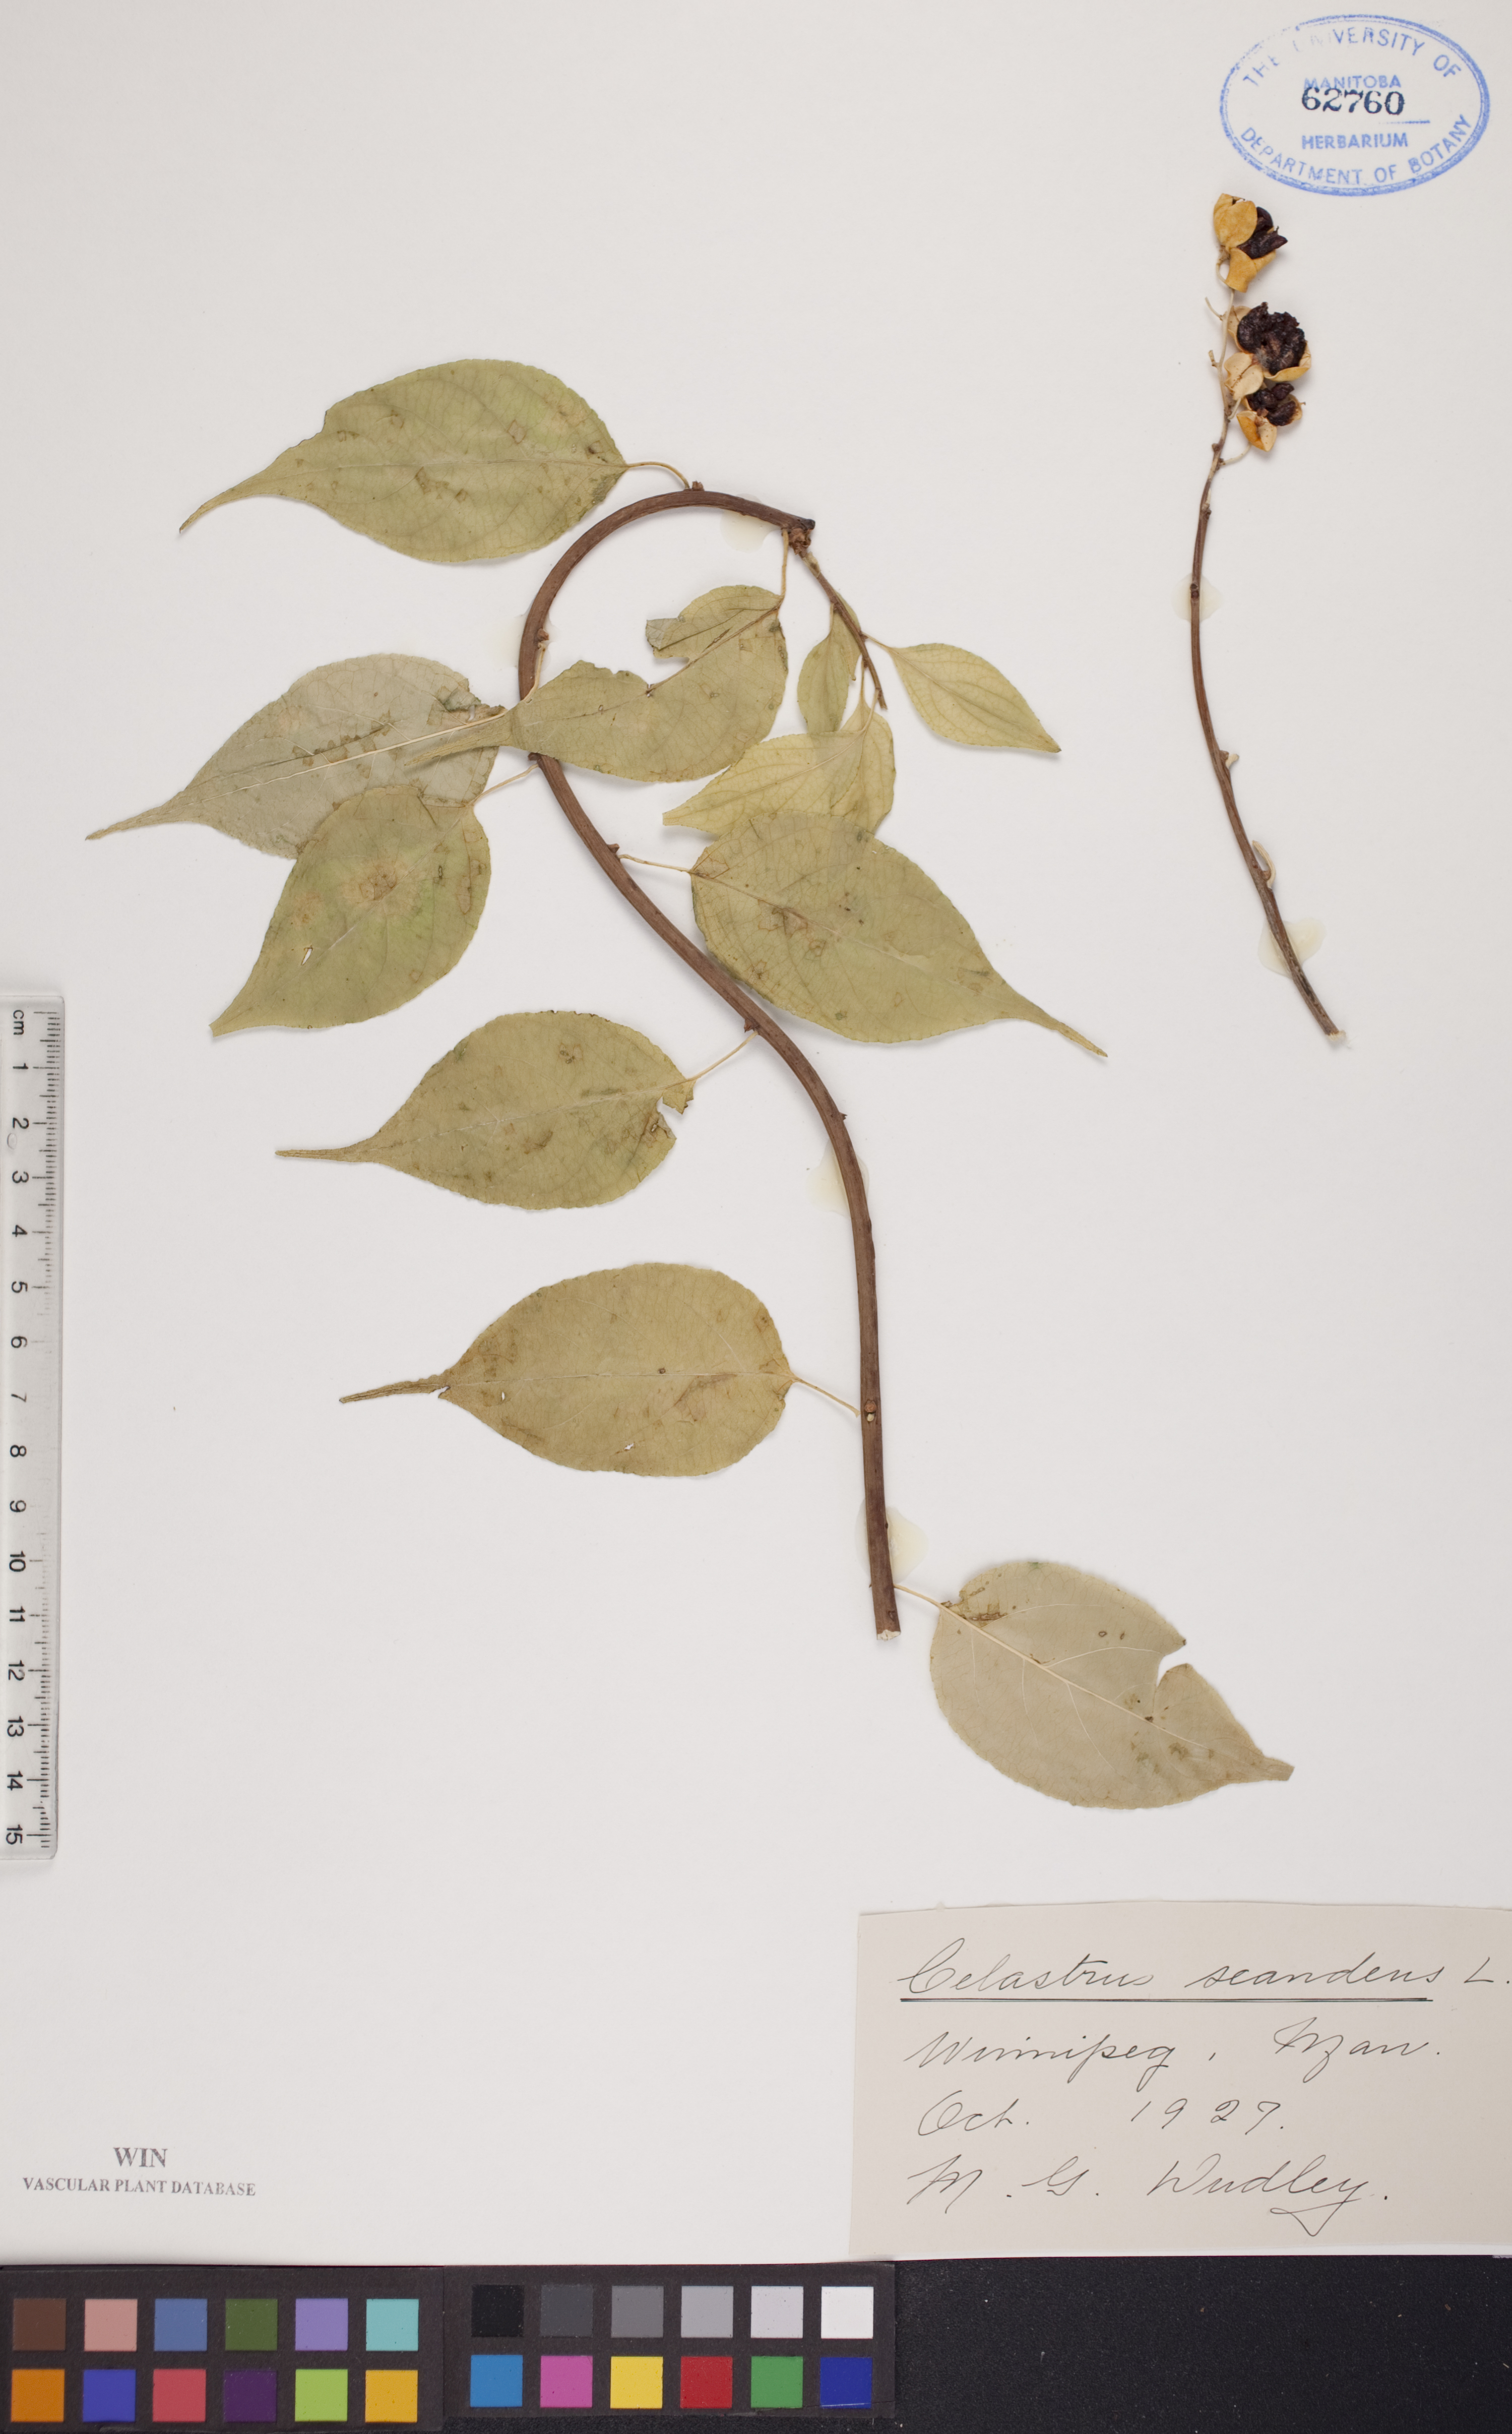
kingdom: Plantae
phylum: Tracheophyta
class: Magnoliopsida
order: Celastrales
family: Celastraceae
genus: Celastrus
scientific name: Celastrus scandens
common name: American bittersweet
